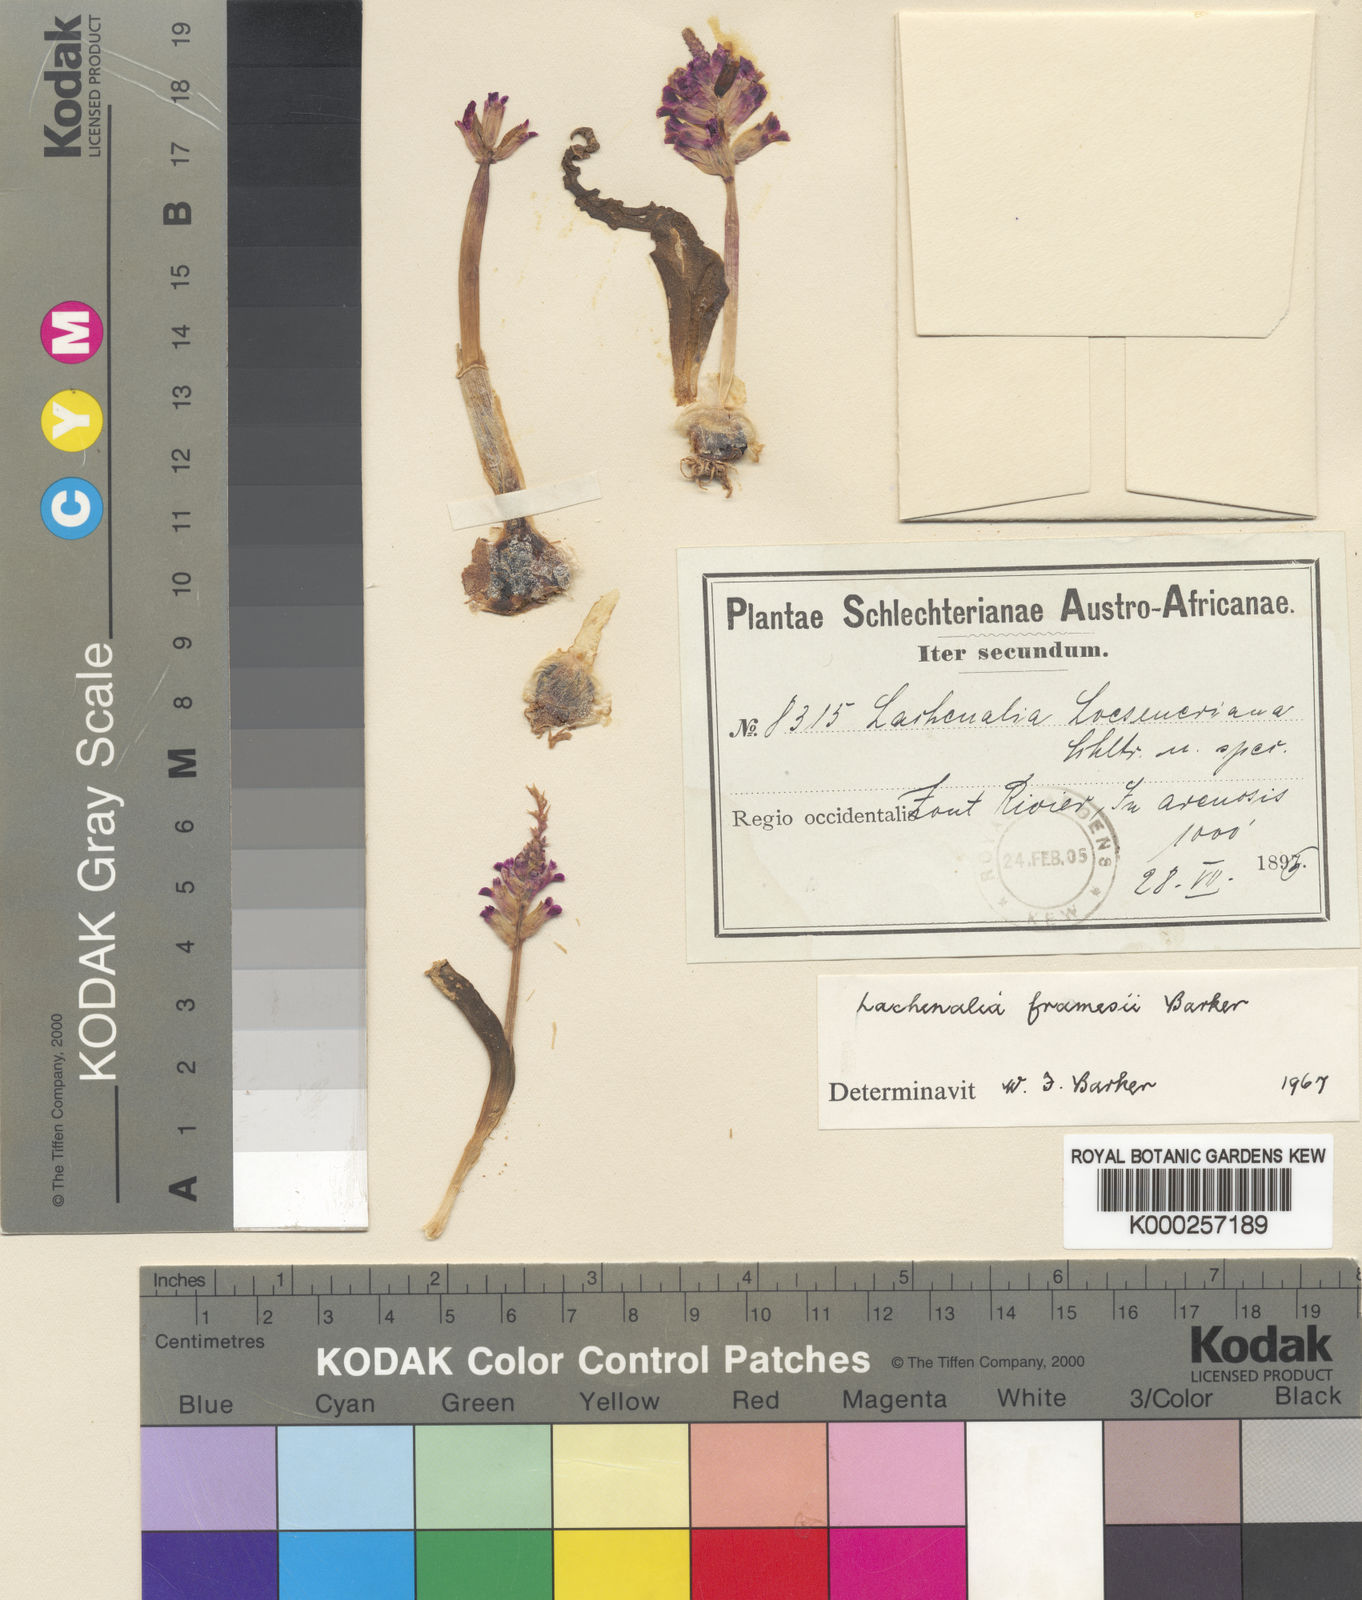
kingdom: Plantae
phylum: Tracheophyta
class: Liliopsida
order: Asparagales
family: Asparagaceae
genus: Lachenalia
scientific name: Lachenalia framesii
